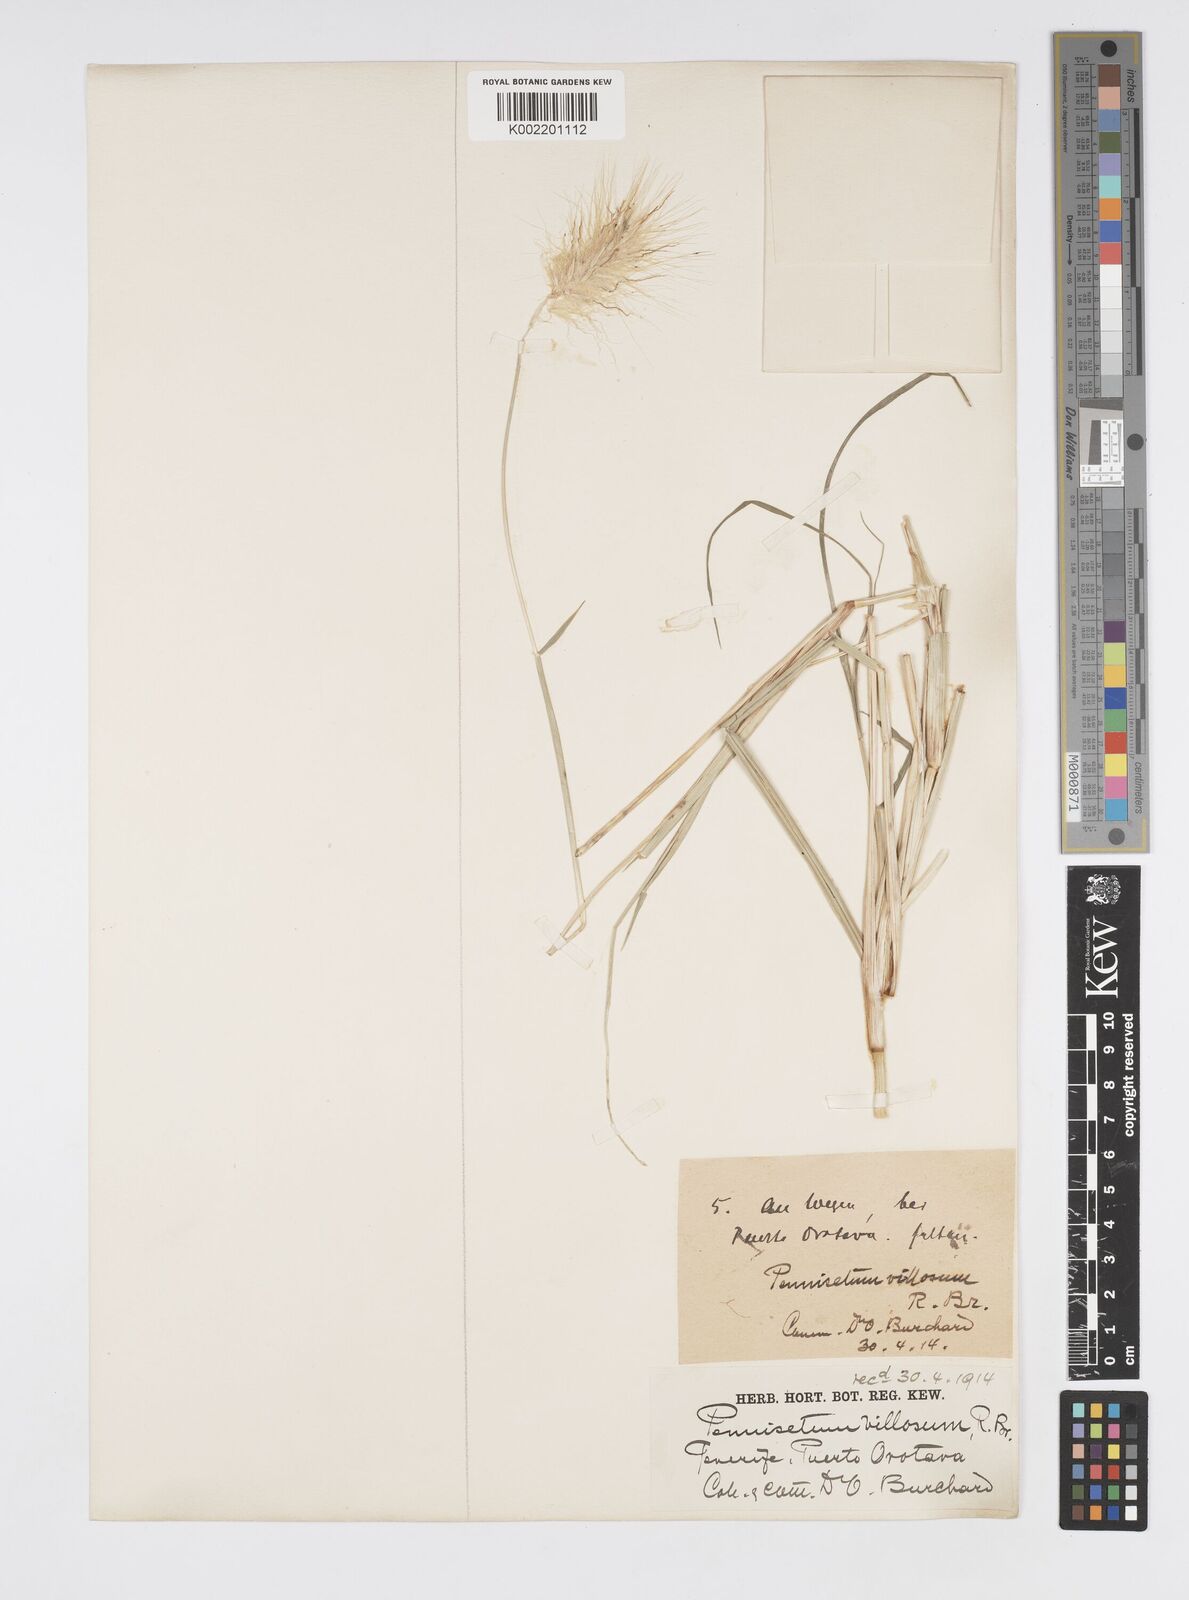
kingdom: Plantae
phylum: Tracheophyta
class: Liliopsida
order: Poales
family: Poaceae
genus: Cenchrus
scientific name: Cenchrus longisetus
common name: Feathertop
